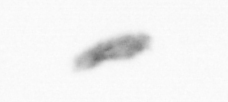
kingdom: Animalia
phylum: Arthropoda
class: Copepoda
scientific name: Copepoda
